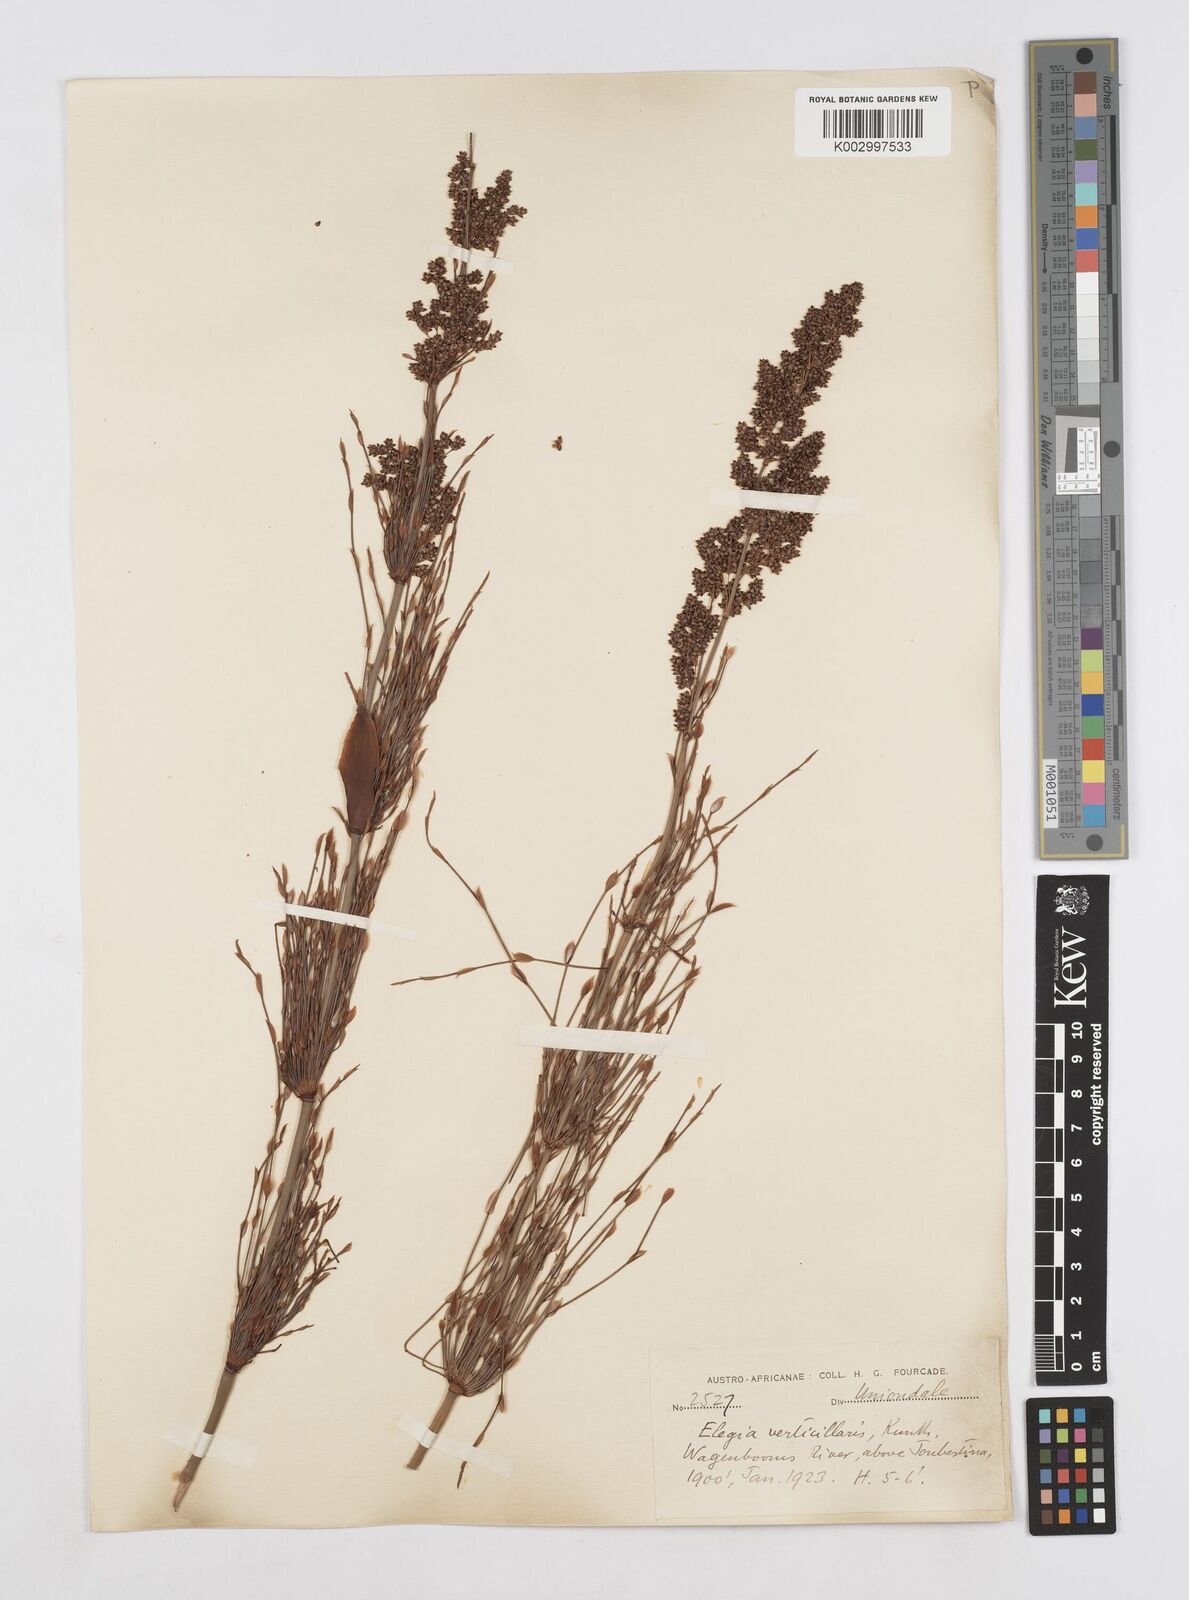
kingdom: Plantae
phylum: Tracheophyta
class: Liliopsida
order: Poales
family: Restionaceae
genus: Elegia
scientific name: Elegia capensis
